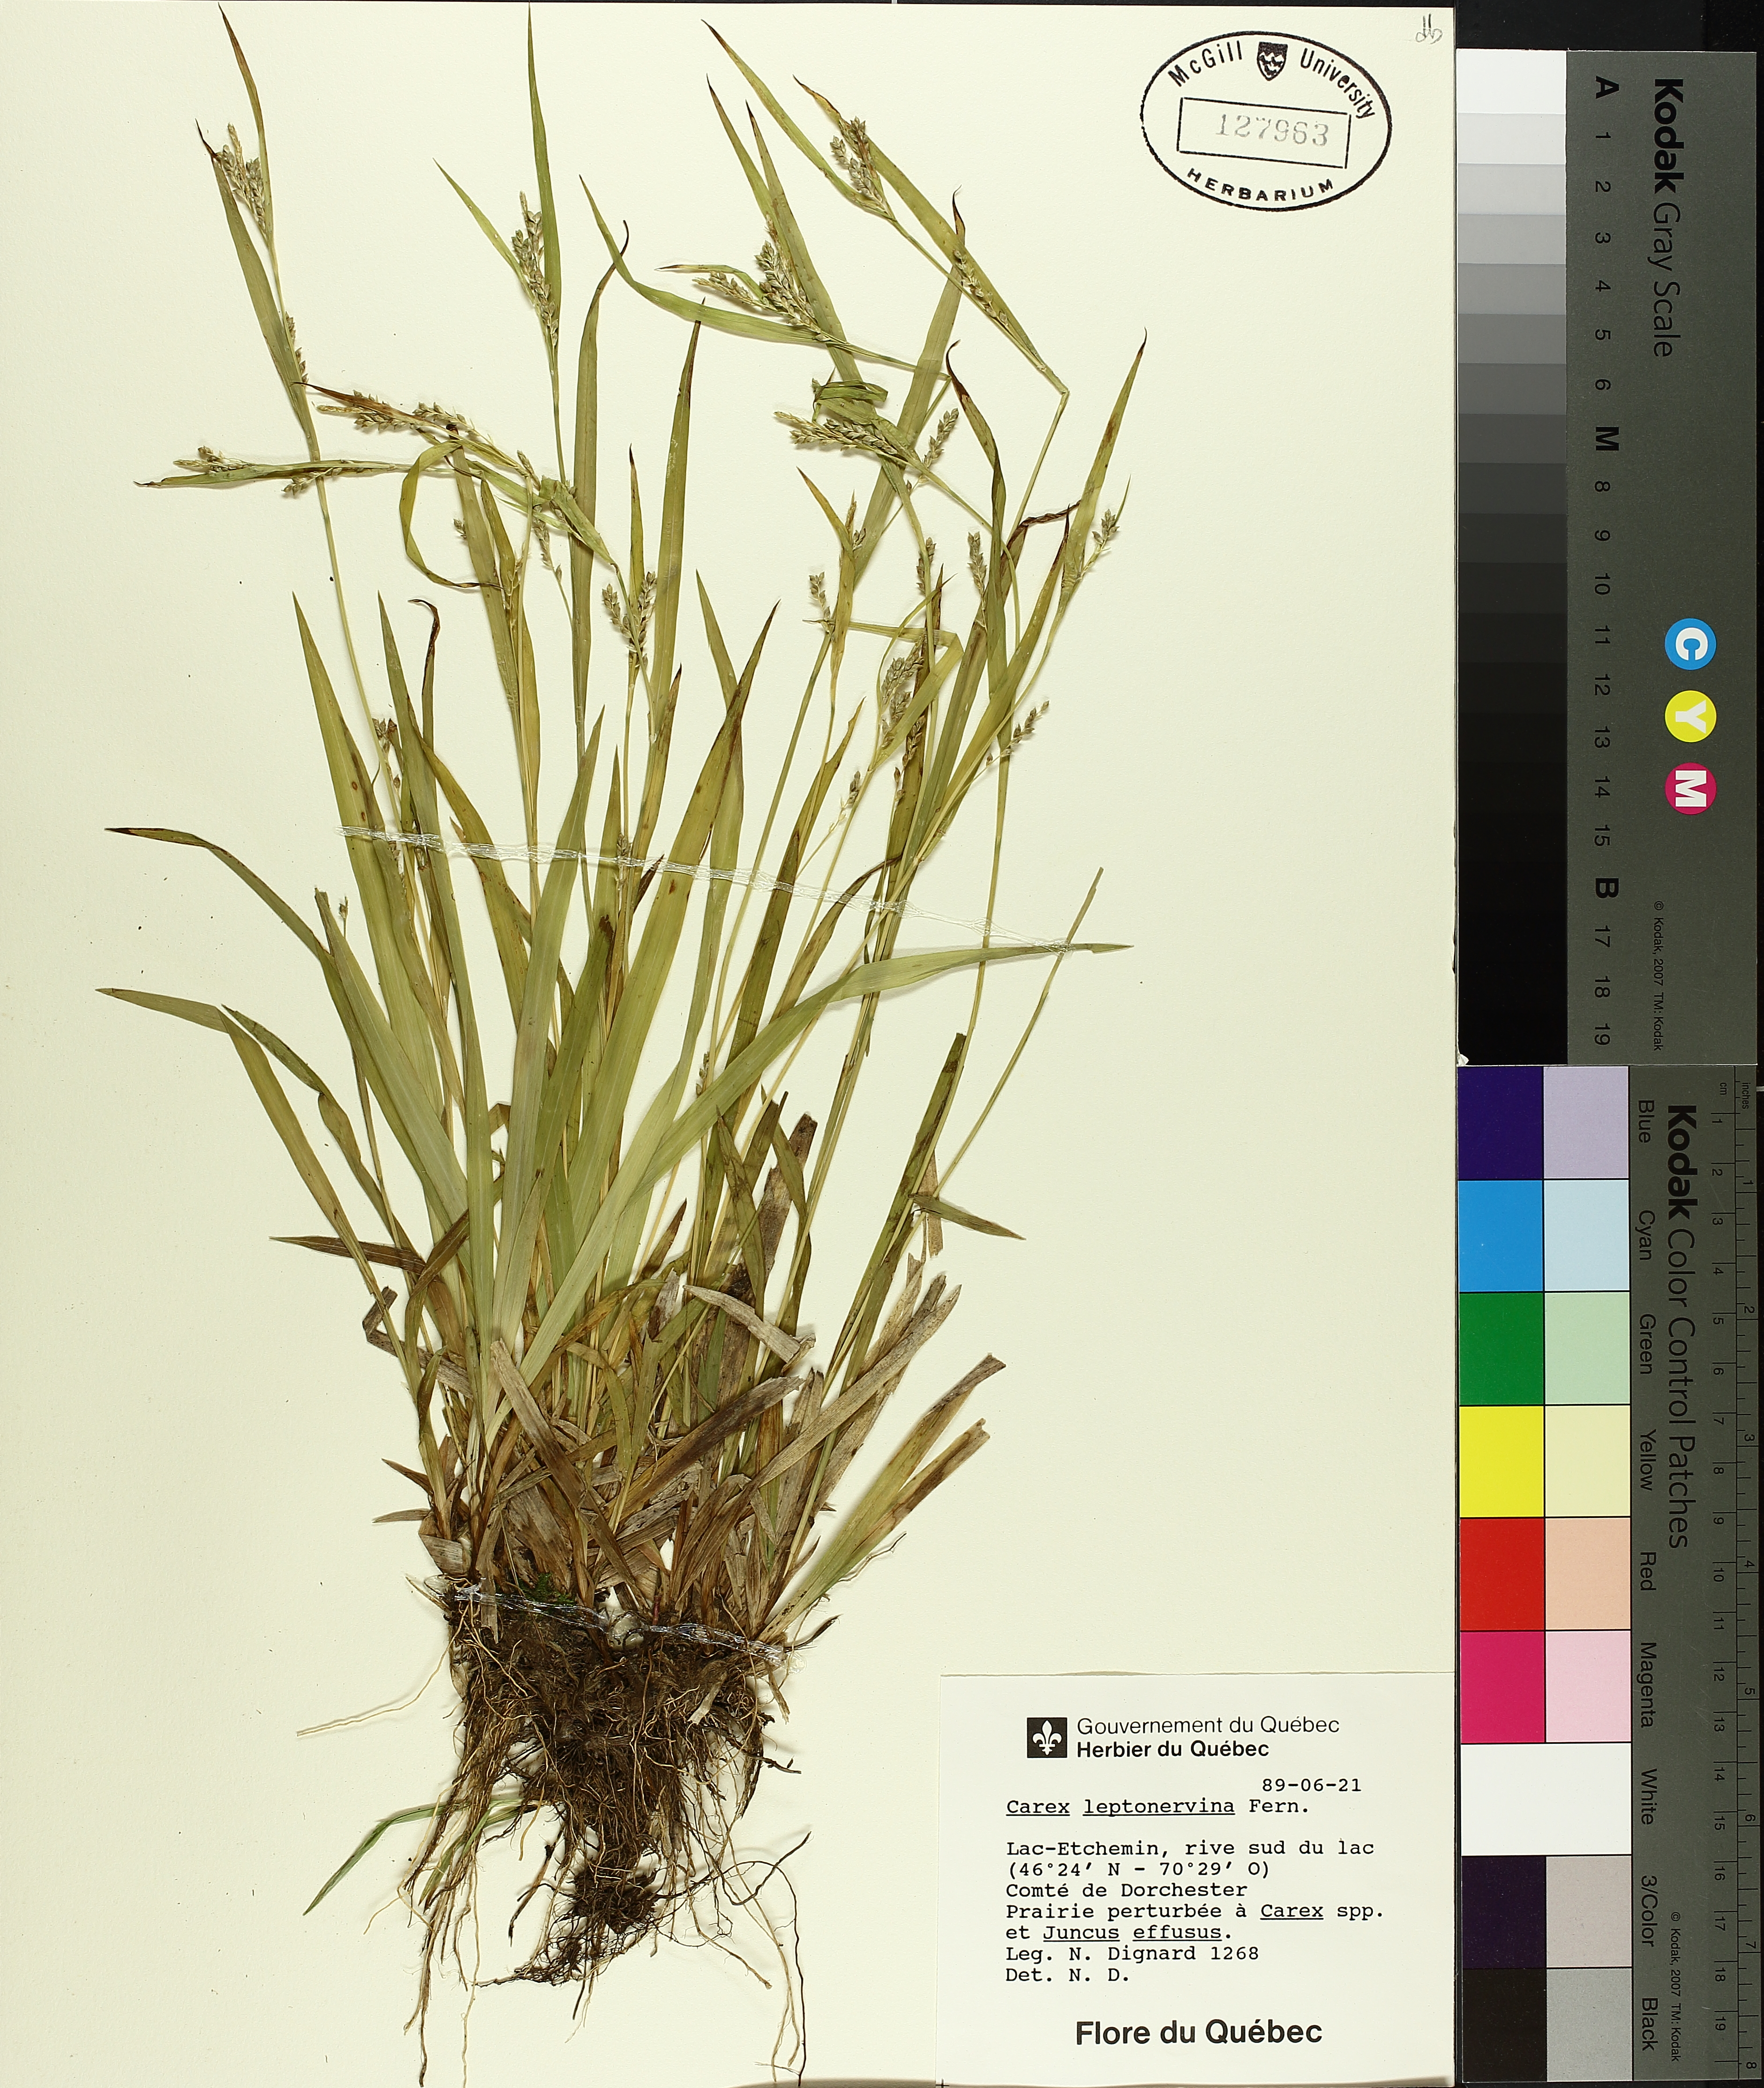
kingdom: Plantae
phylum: Tracheophyta
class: Liliopsida
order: Poales
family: Cyperaceae
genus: Carex
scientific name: Carex leptonervia
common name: Few-nerved wood sedge
